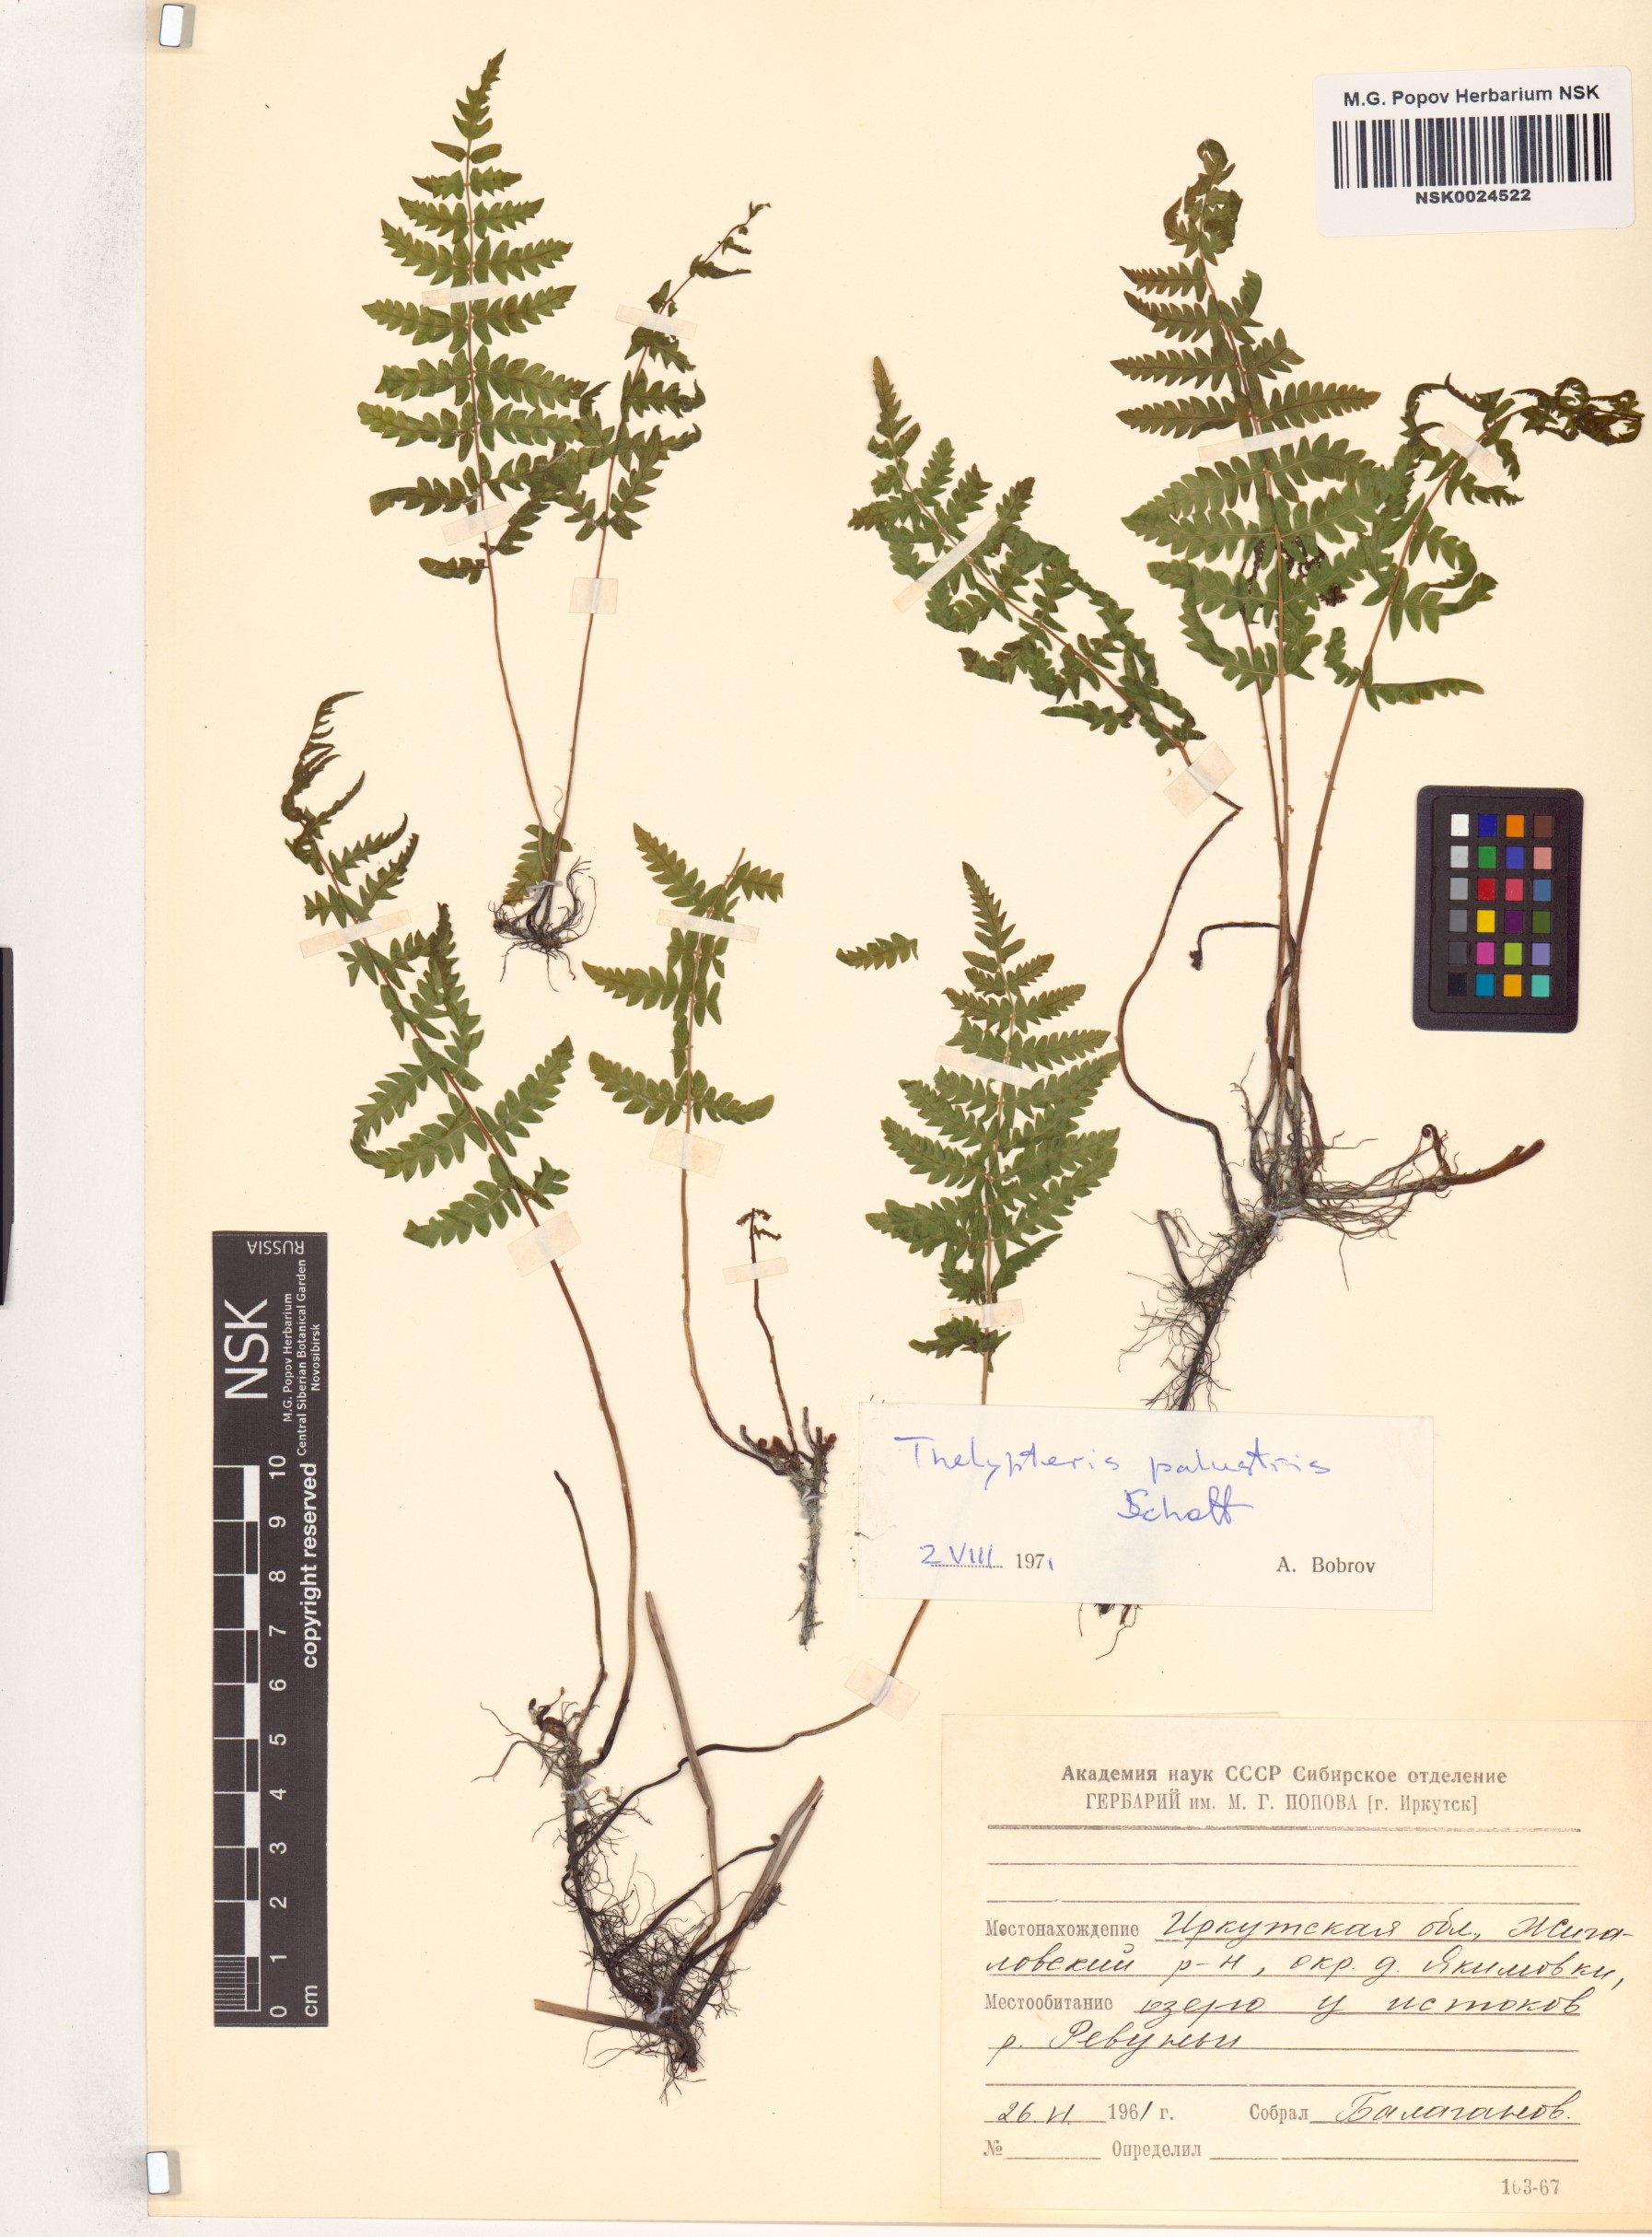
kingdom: Plantae
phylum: Tracheophyta
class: Polypodiopsida
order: Polypodiales
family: Thelypteridaceae
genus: Thelypteris
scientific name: Thelypteris palustris
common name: Marsh fern
